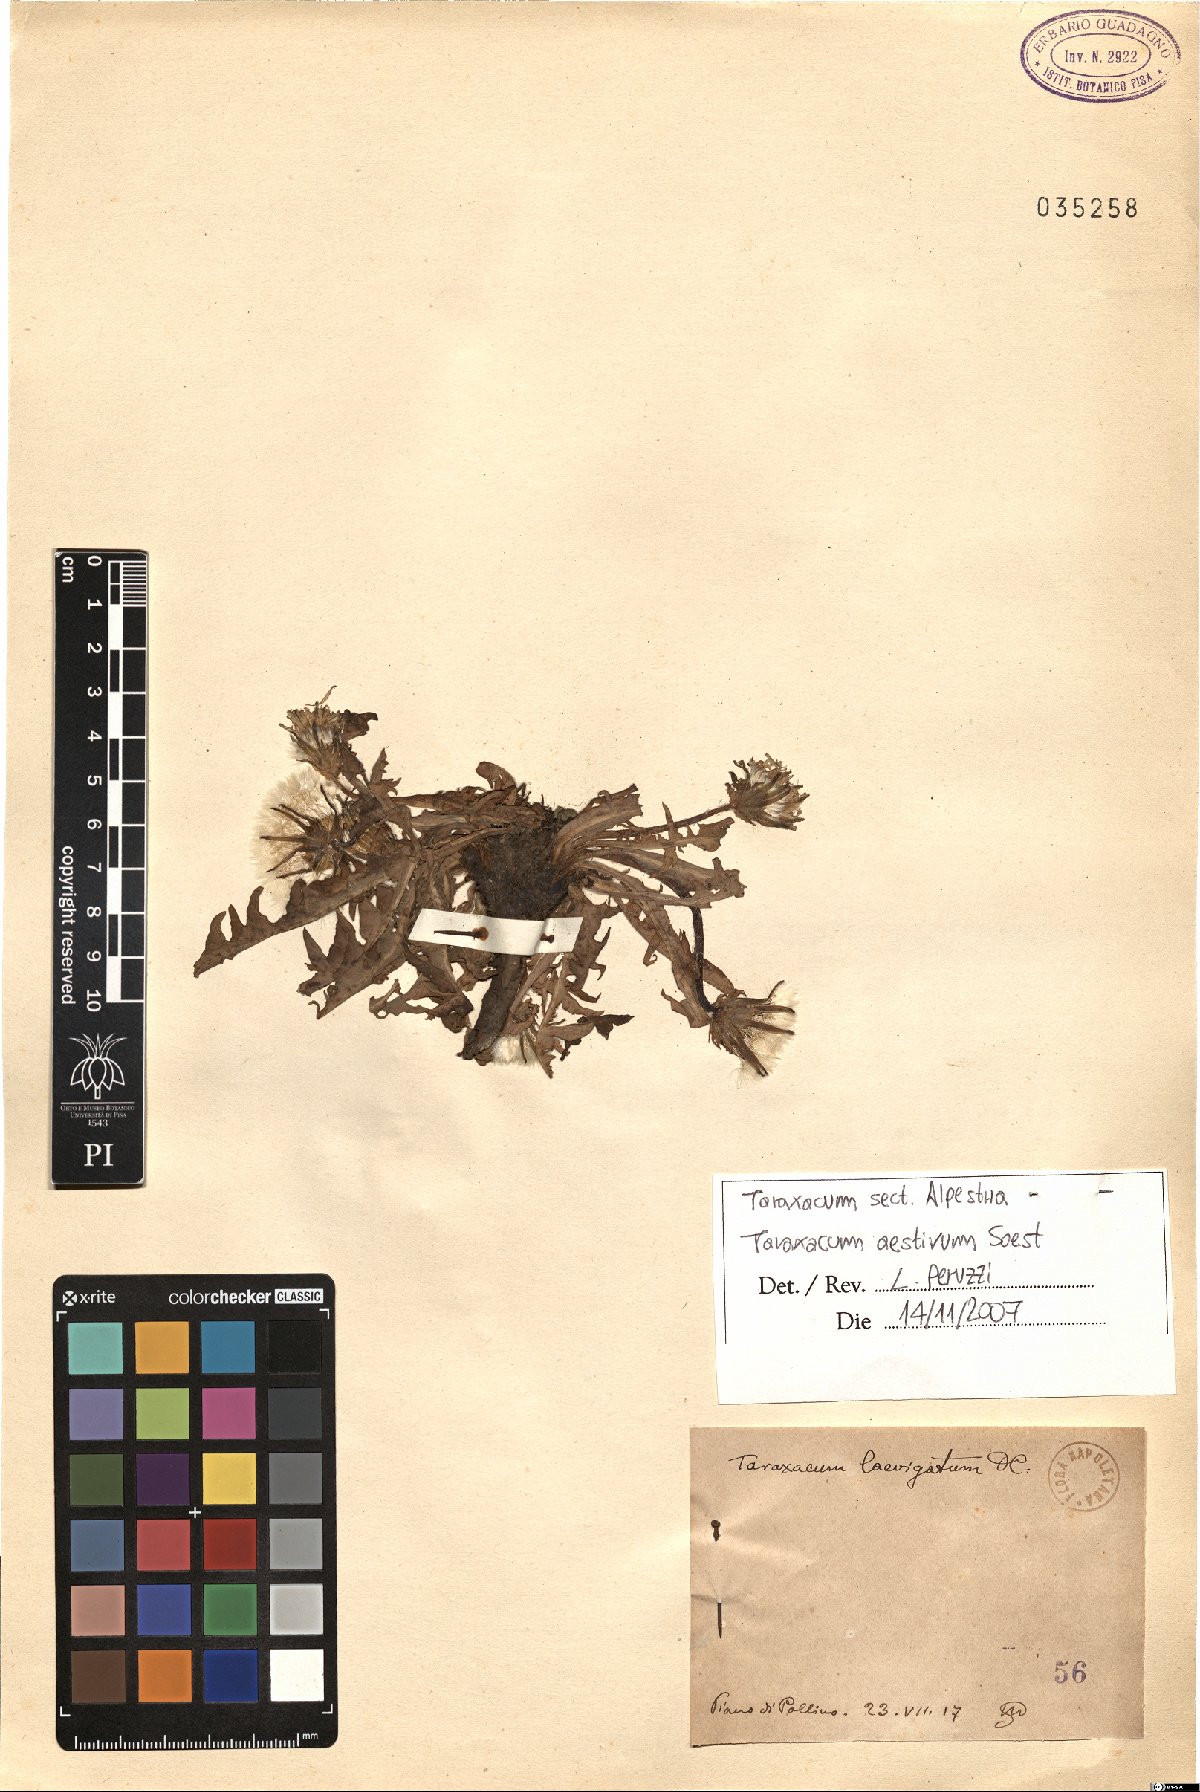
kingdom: Plantae
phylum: Tracheophyta
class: Magnoliopsida
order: Asterales
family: Asteraceae
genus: Taraxacum
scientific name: Taraxacum aestivum
